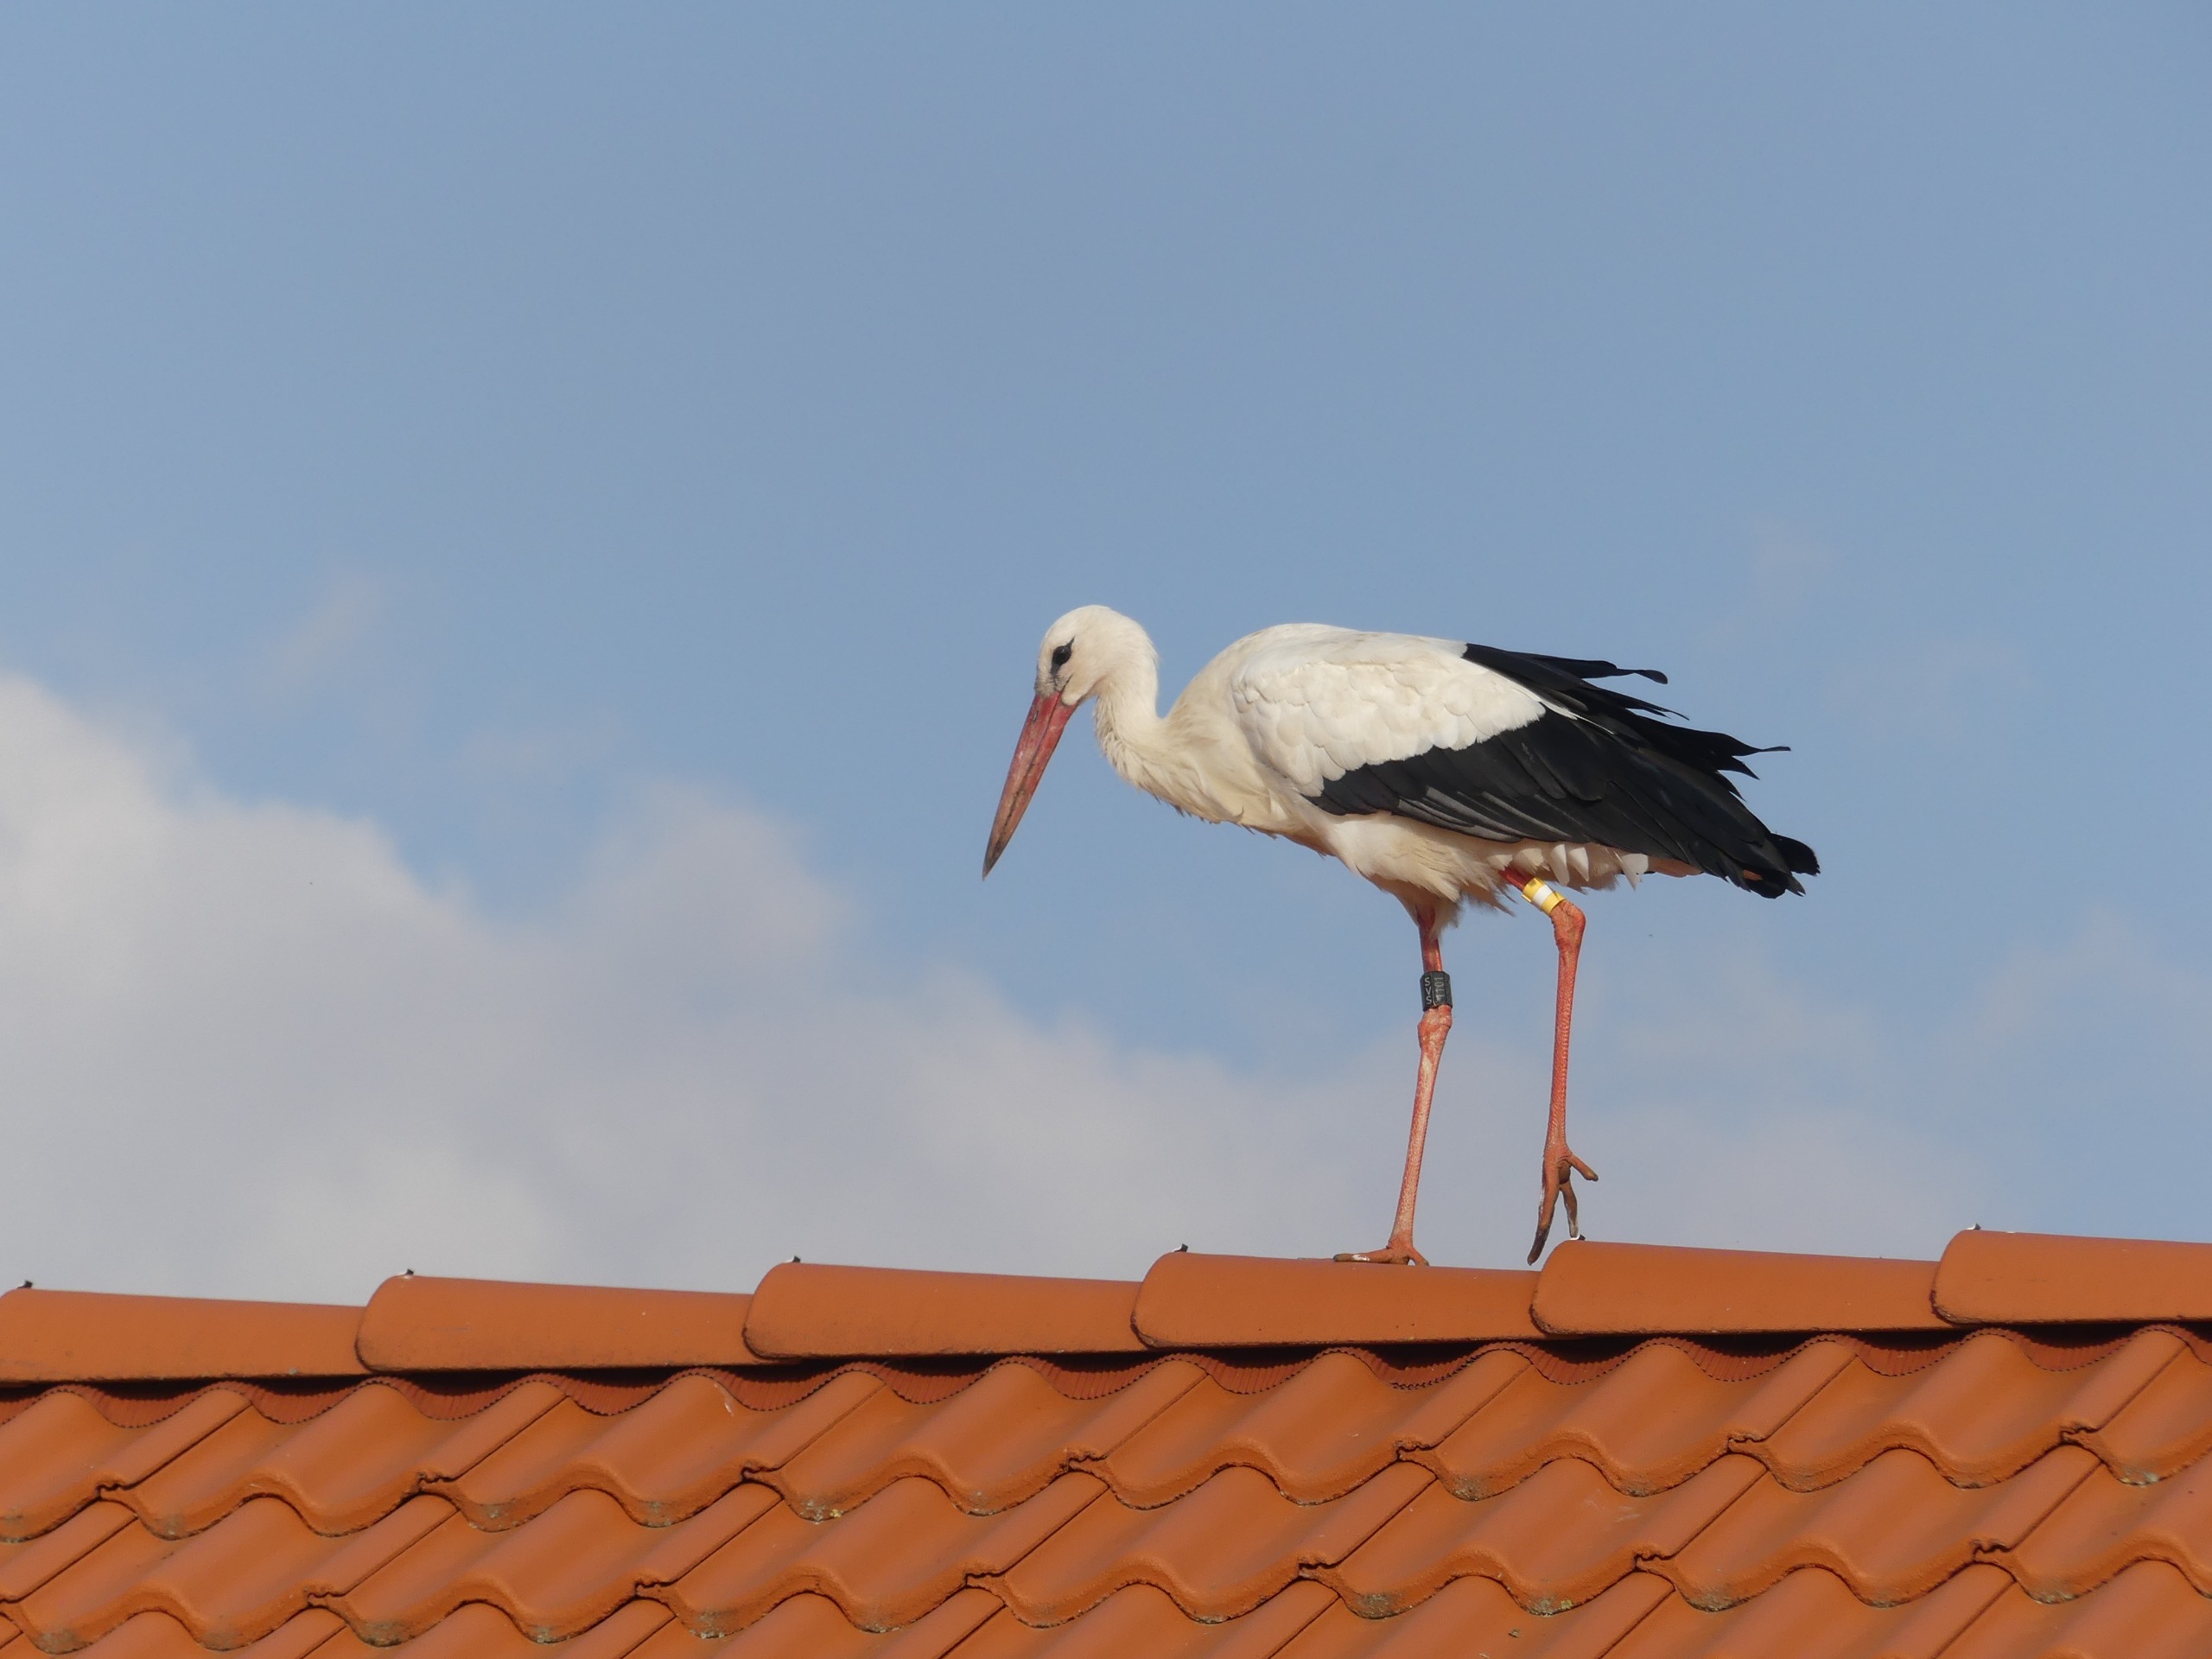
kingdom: Animalia
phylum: Chordata
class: Aves
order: Ciconiiformes
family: Ciconiidae
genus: Ciconia
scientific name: Ciconia ciconia
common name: Hvid stork
